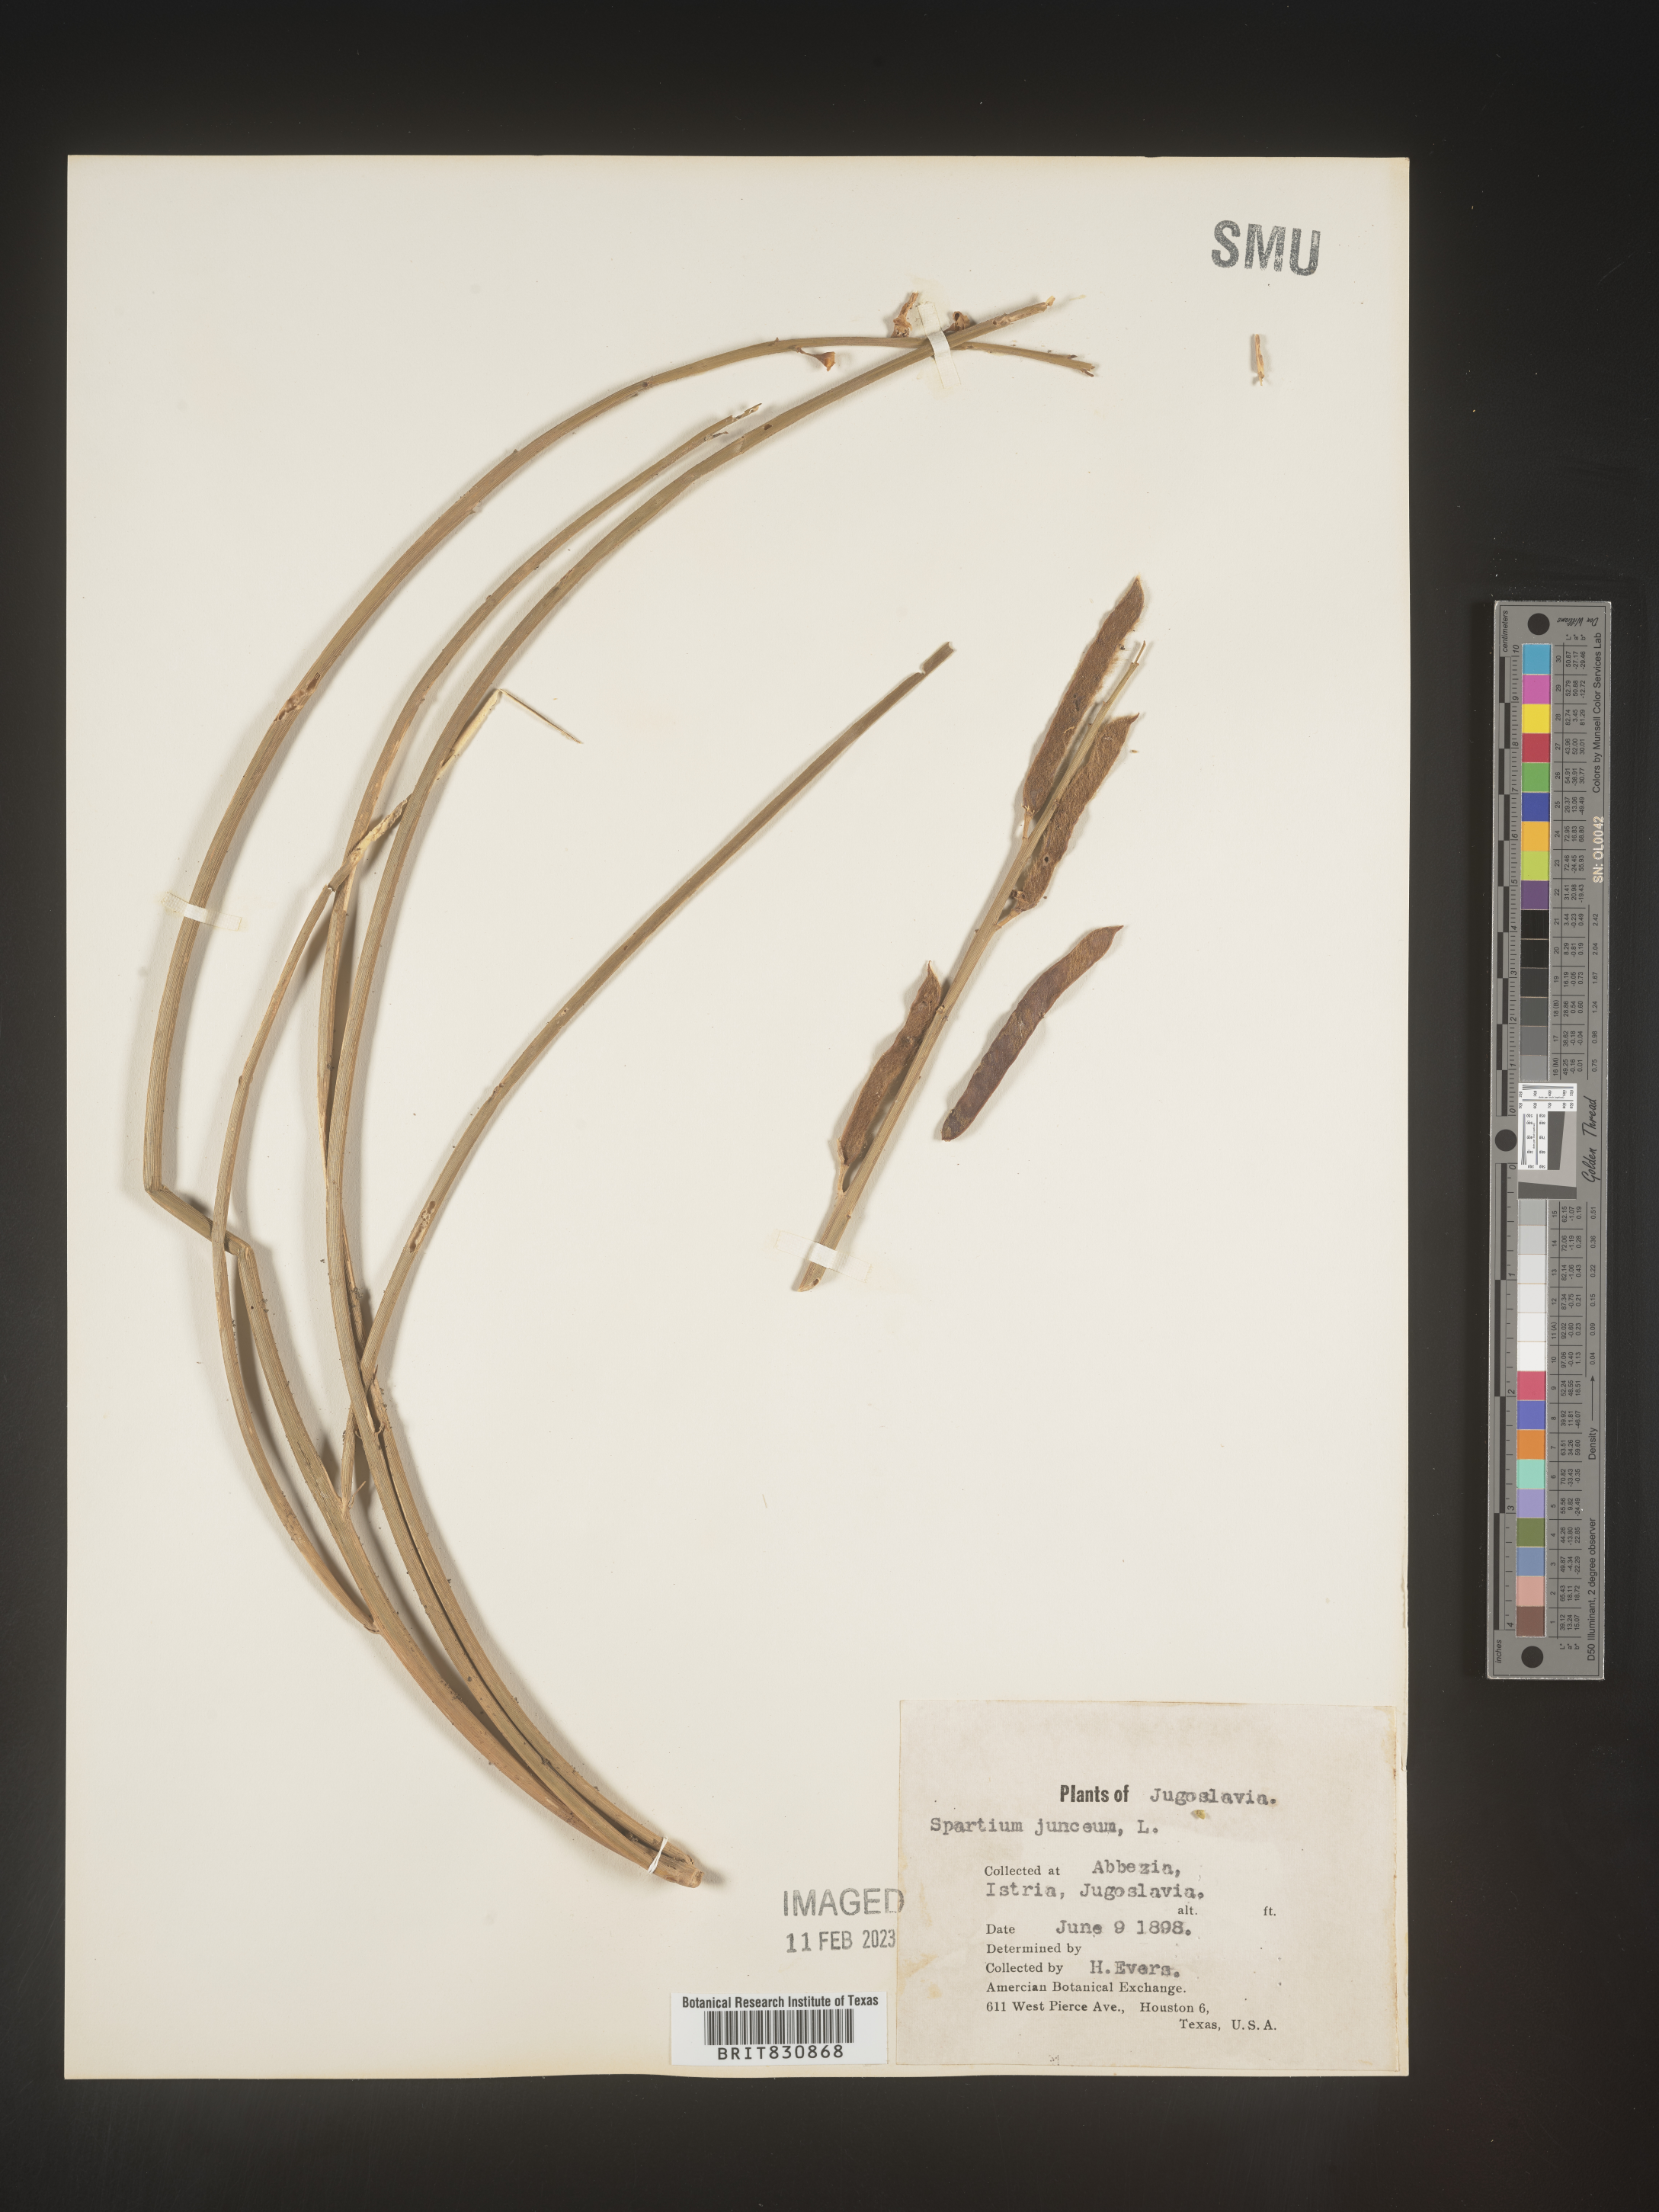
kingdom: Plantae
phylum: Tracheophyta
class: Magnoliopsida
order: Fabales
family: Fabaceae
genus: Spartium
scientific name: Spartium
